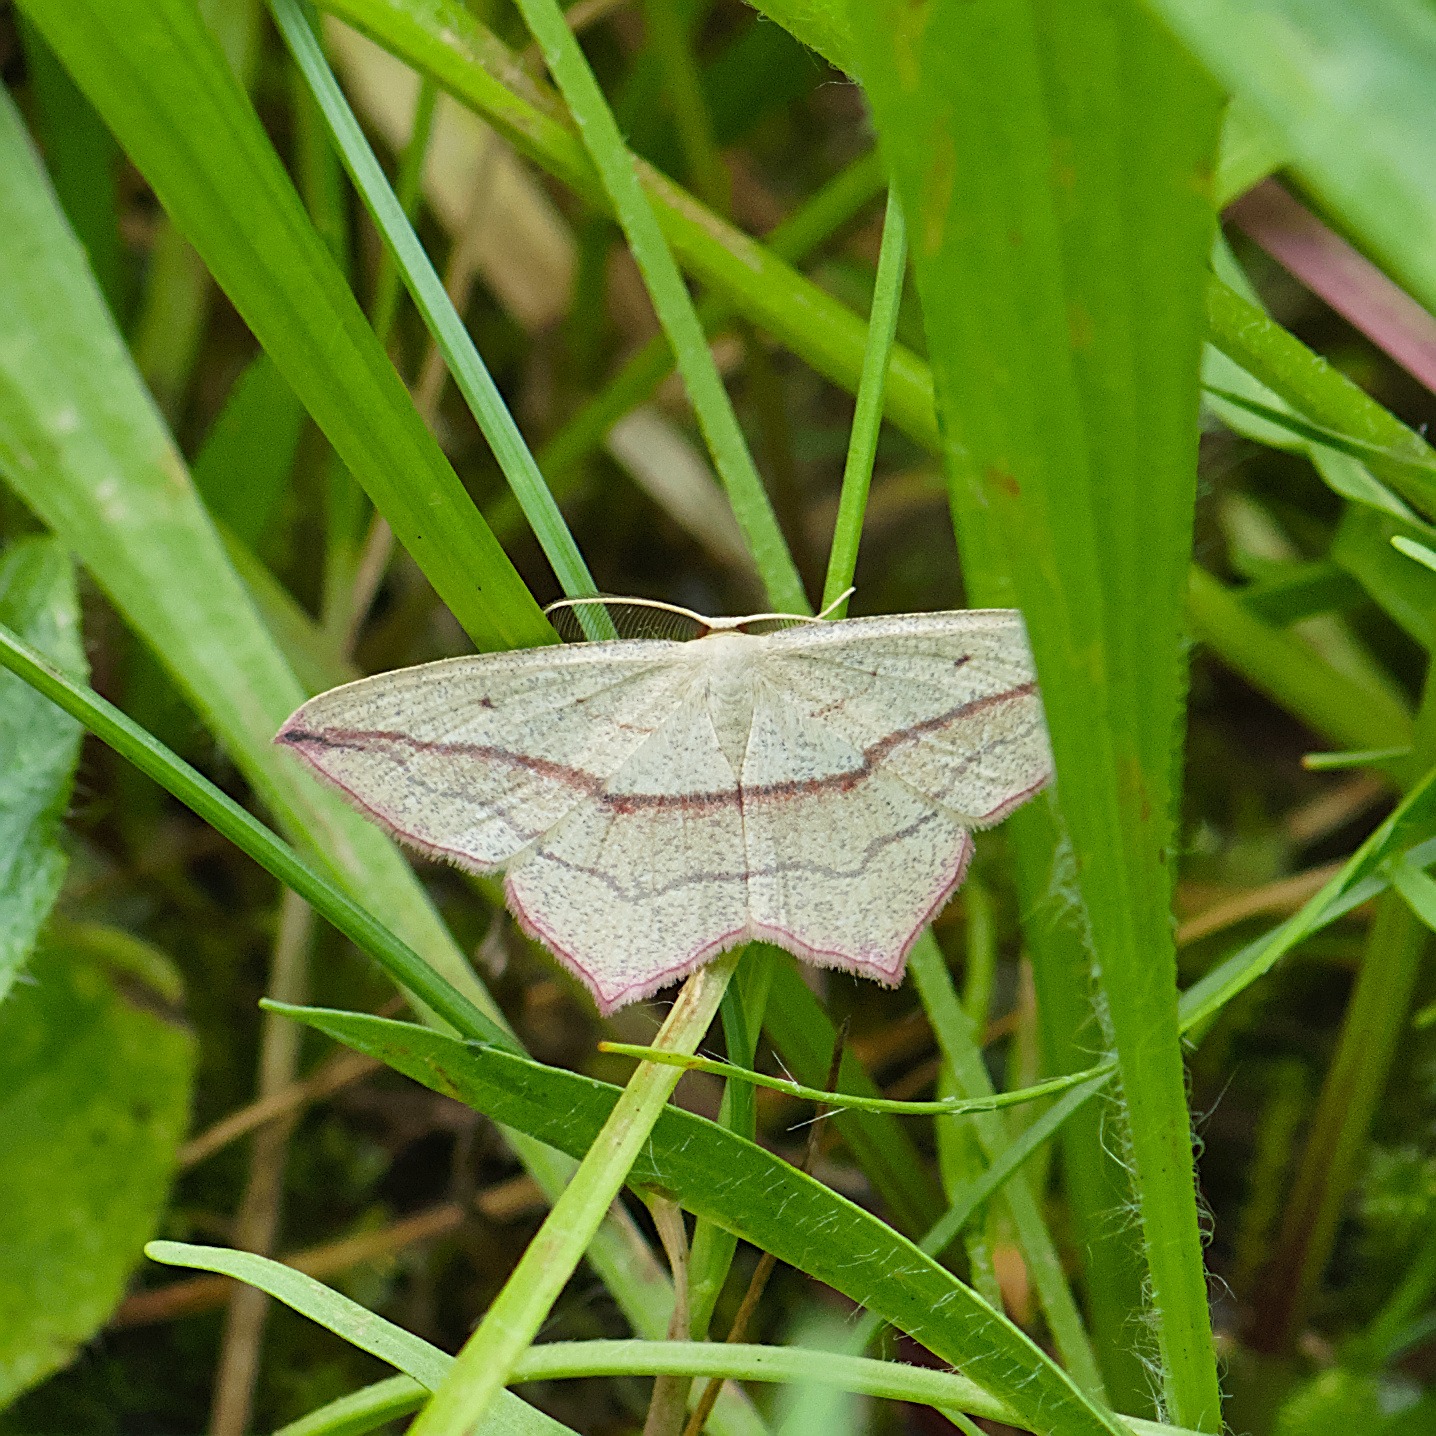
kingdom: Animalia
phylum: Arthropoda
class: Insecta
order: Lepidoptera
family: Geometridae
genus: Timandra
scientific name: Timandra comae
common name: Gul syremåler
